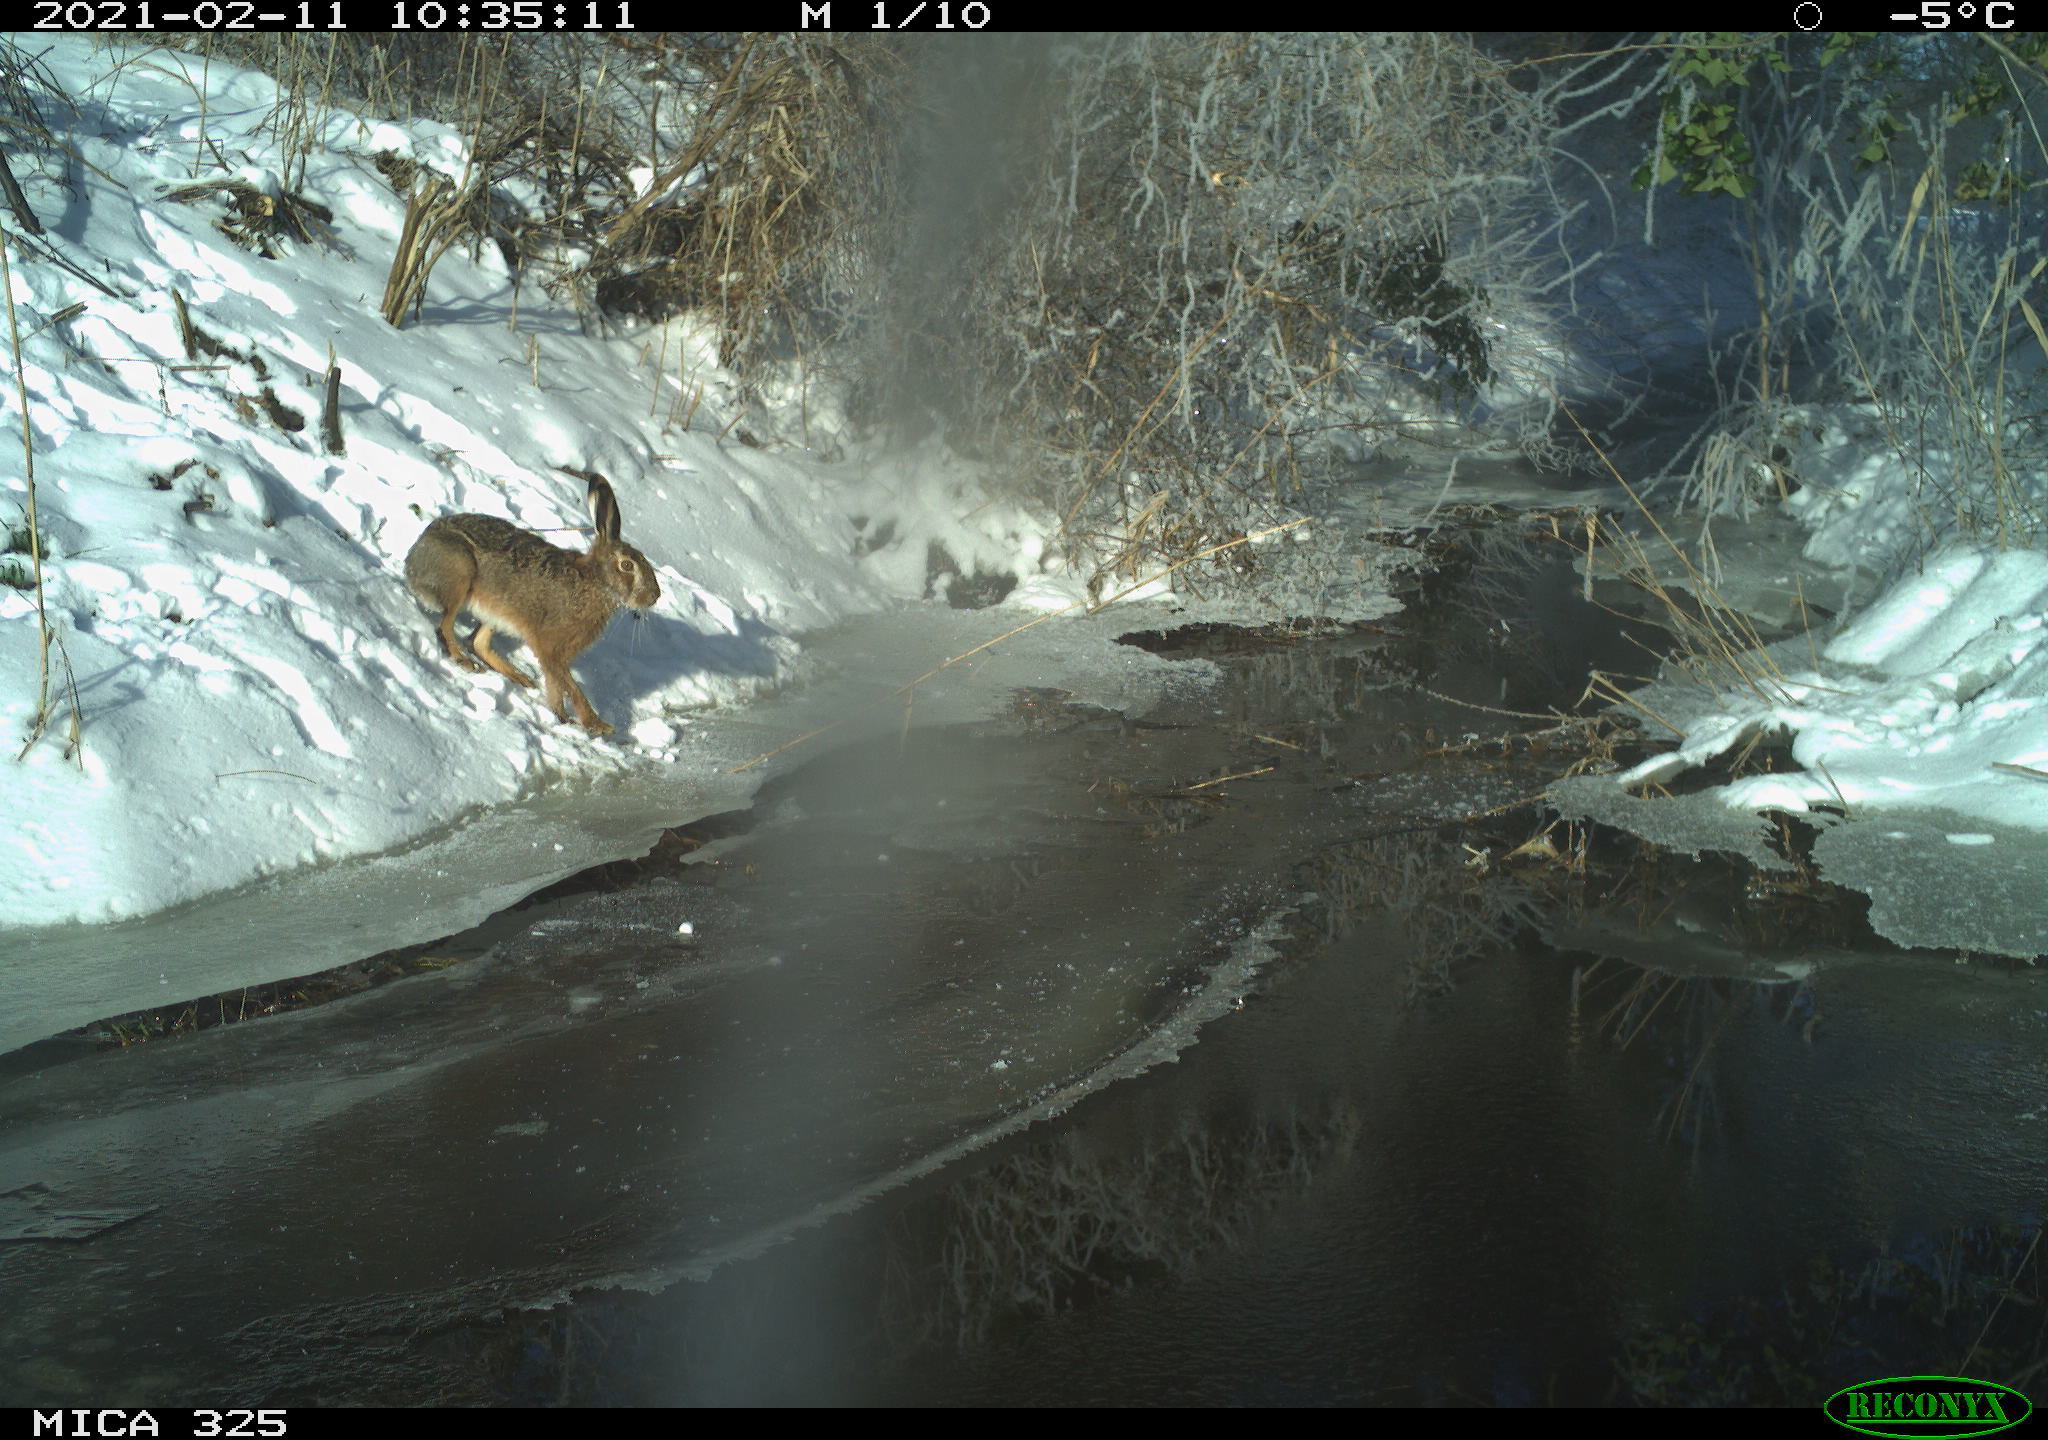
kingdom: Animalia
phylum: Chordata
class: Mammalia
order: Lagomorpha
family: Leporidae
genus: Lepus
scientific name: Lepus europaeus
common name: European hare
